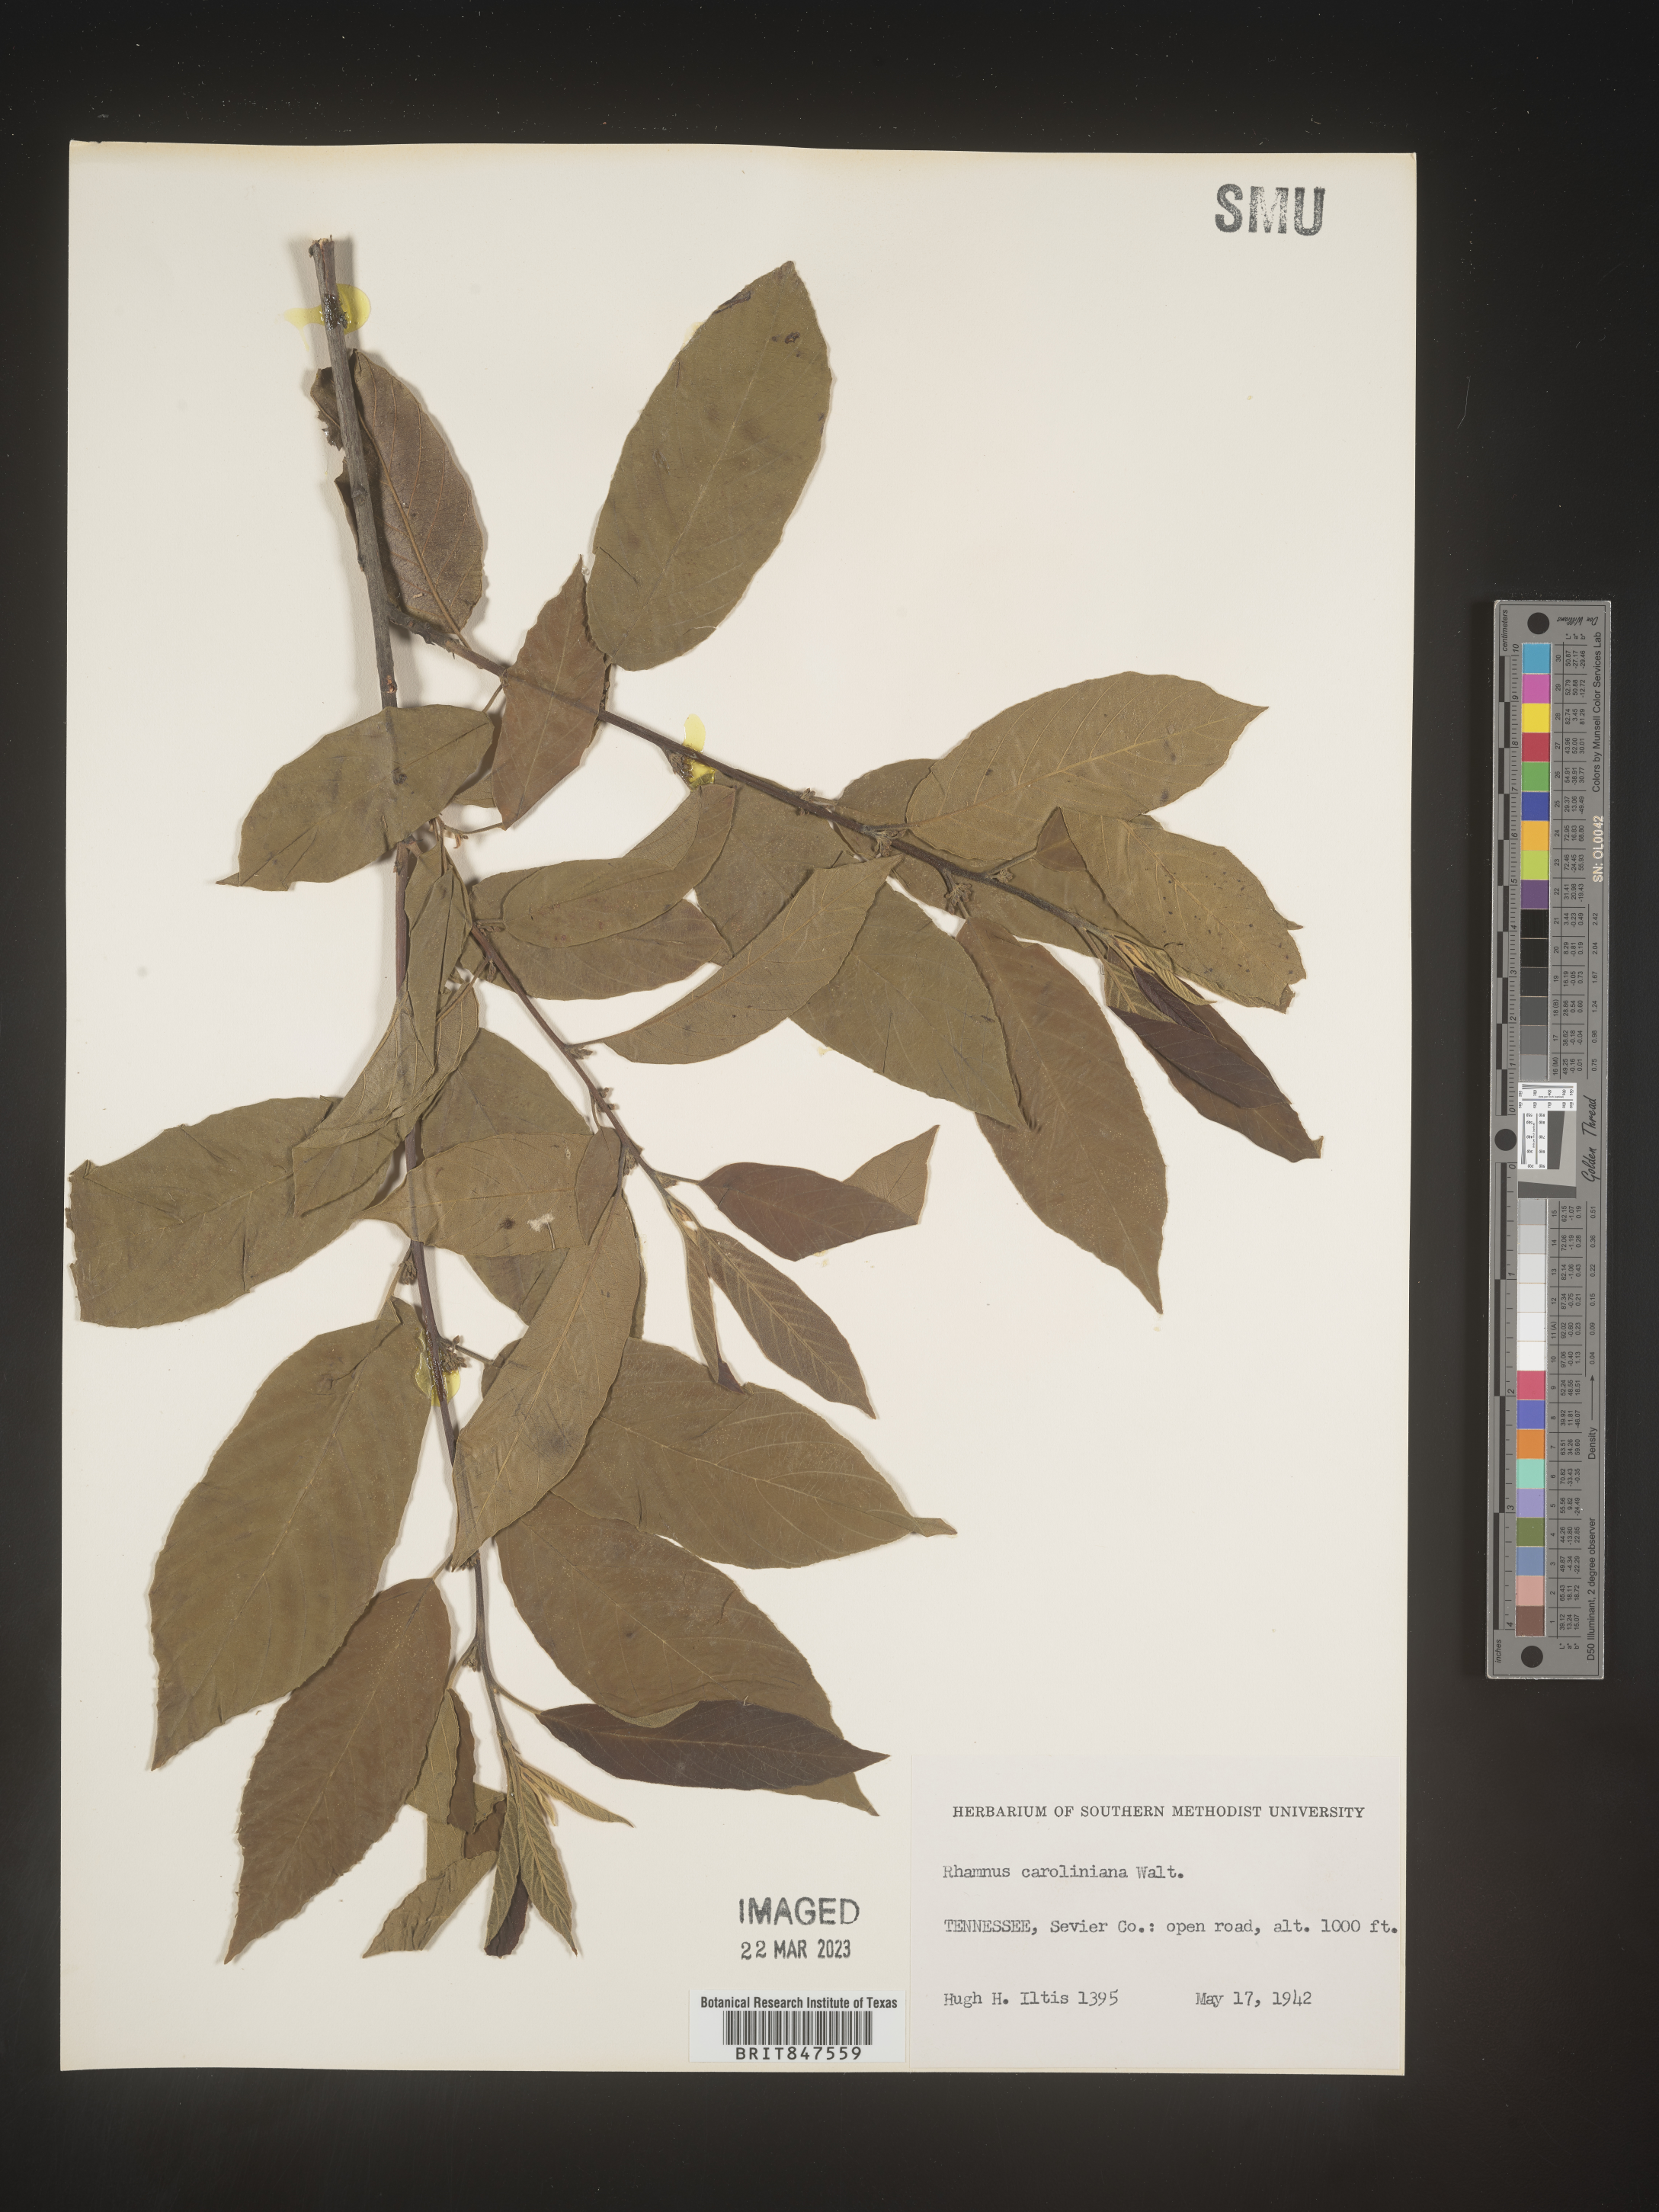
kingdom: Plantae
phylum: Tracheophyta
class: Magnoliopsida
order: Rosales
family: Rhamnaceae
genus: Frangula
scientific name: Frangula caroliniana
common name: Carolina buckthorn
